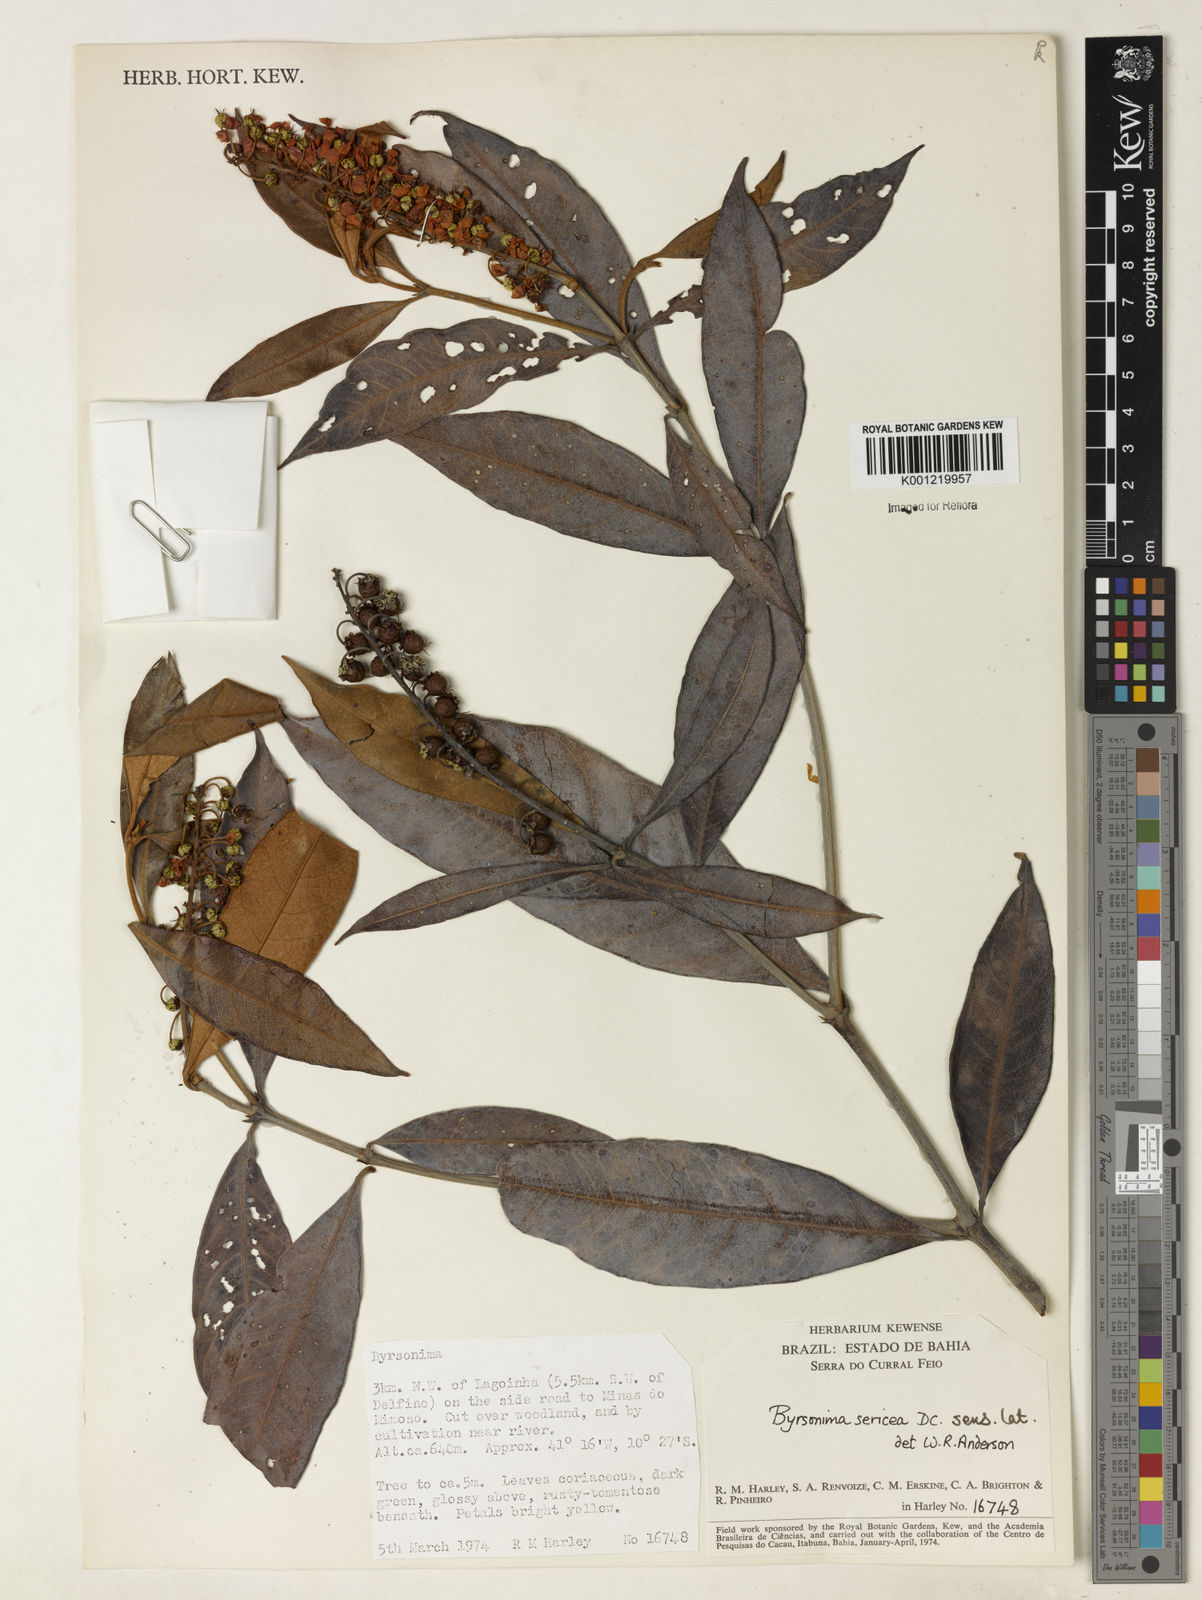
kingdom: Plantae
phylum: Tracheophyta
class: Magnoliopsida
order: Malpighiales
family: Malpighiaceae
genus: Byrsonima
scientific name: Byrsonima sericea
